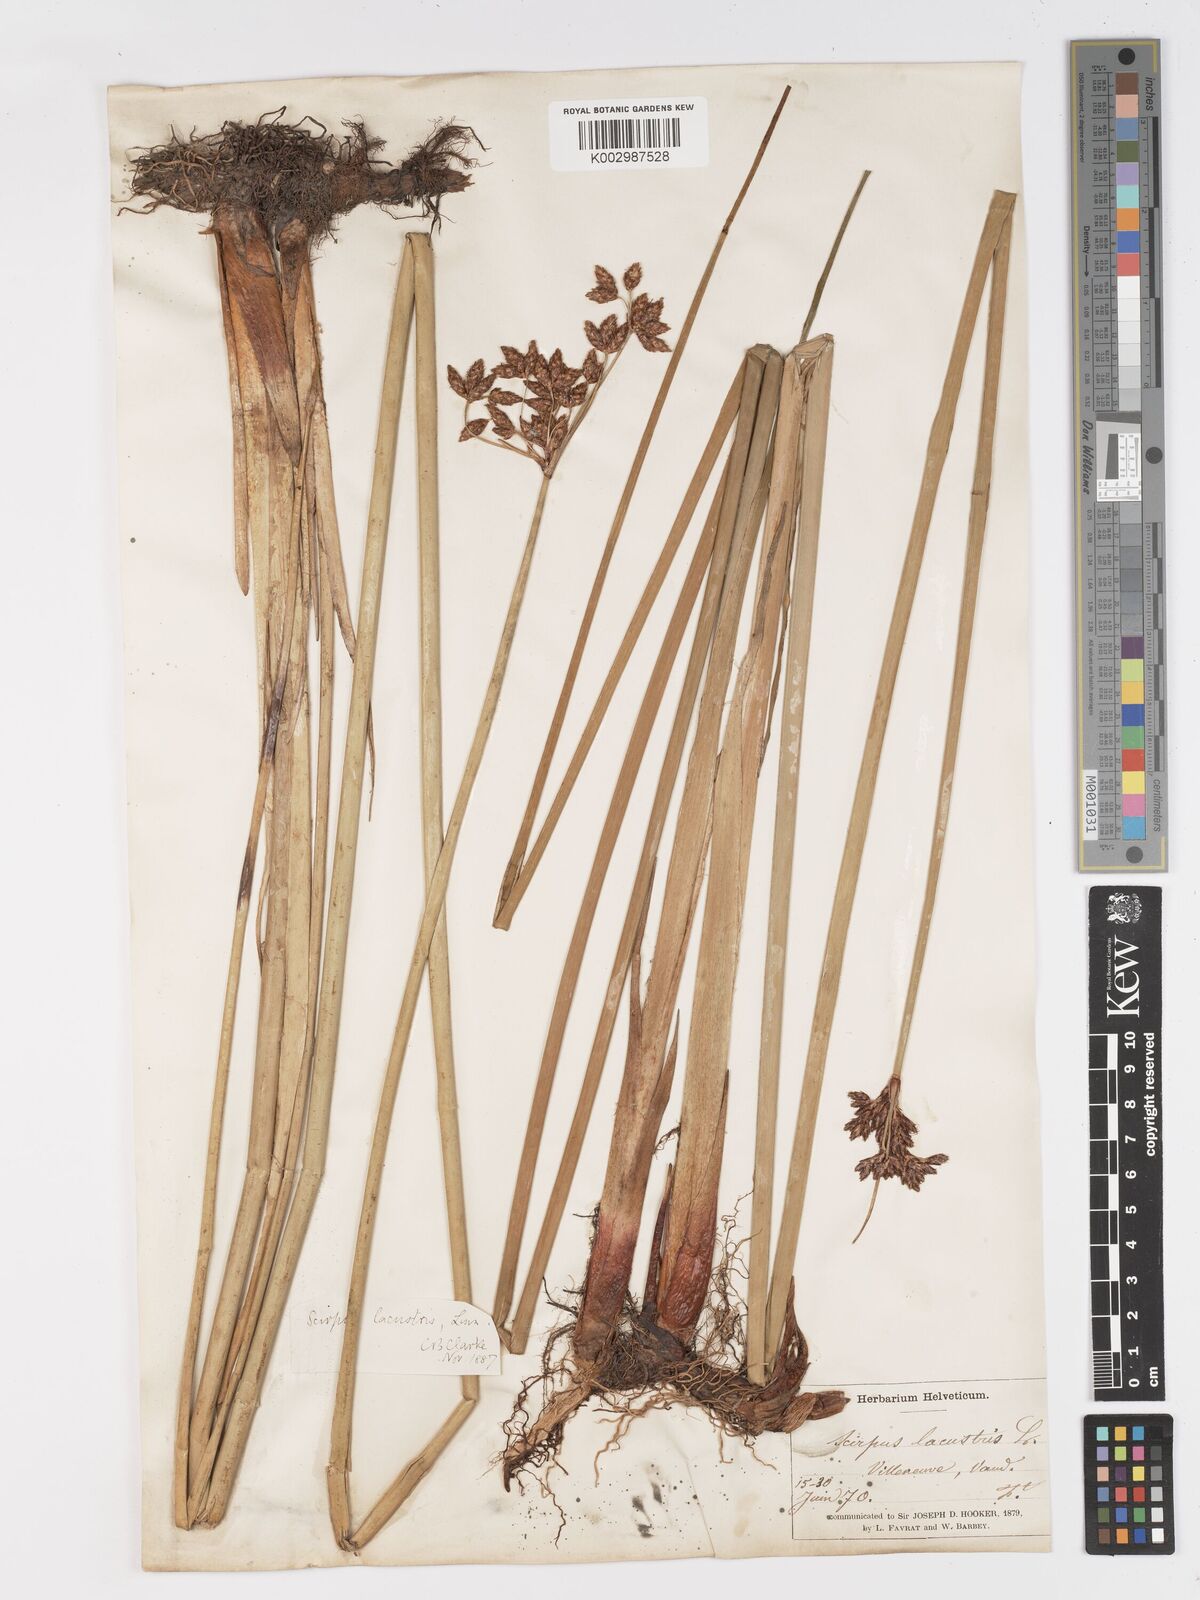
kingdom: Plantae
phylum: Tracheophyta
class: Liliopsida
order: Poales
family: Cyperaceae
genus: Schoenoplectus
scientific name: Schoenoplectus lacustris
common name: Common club-rush
